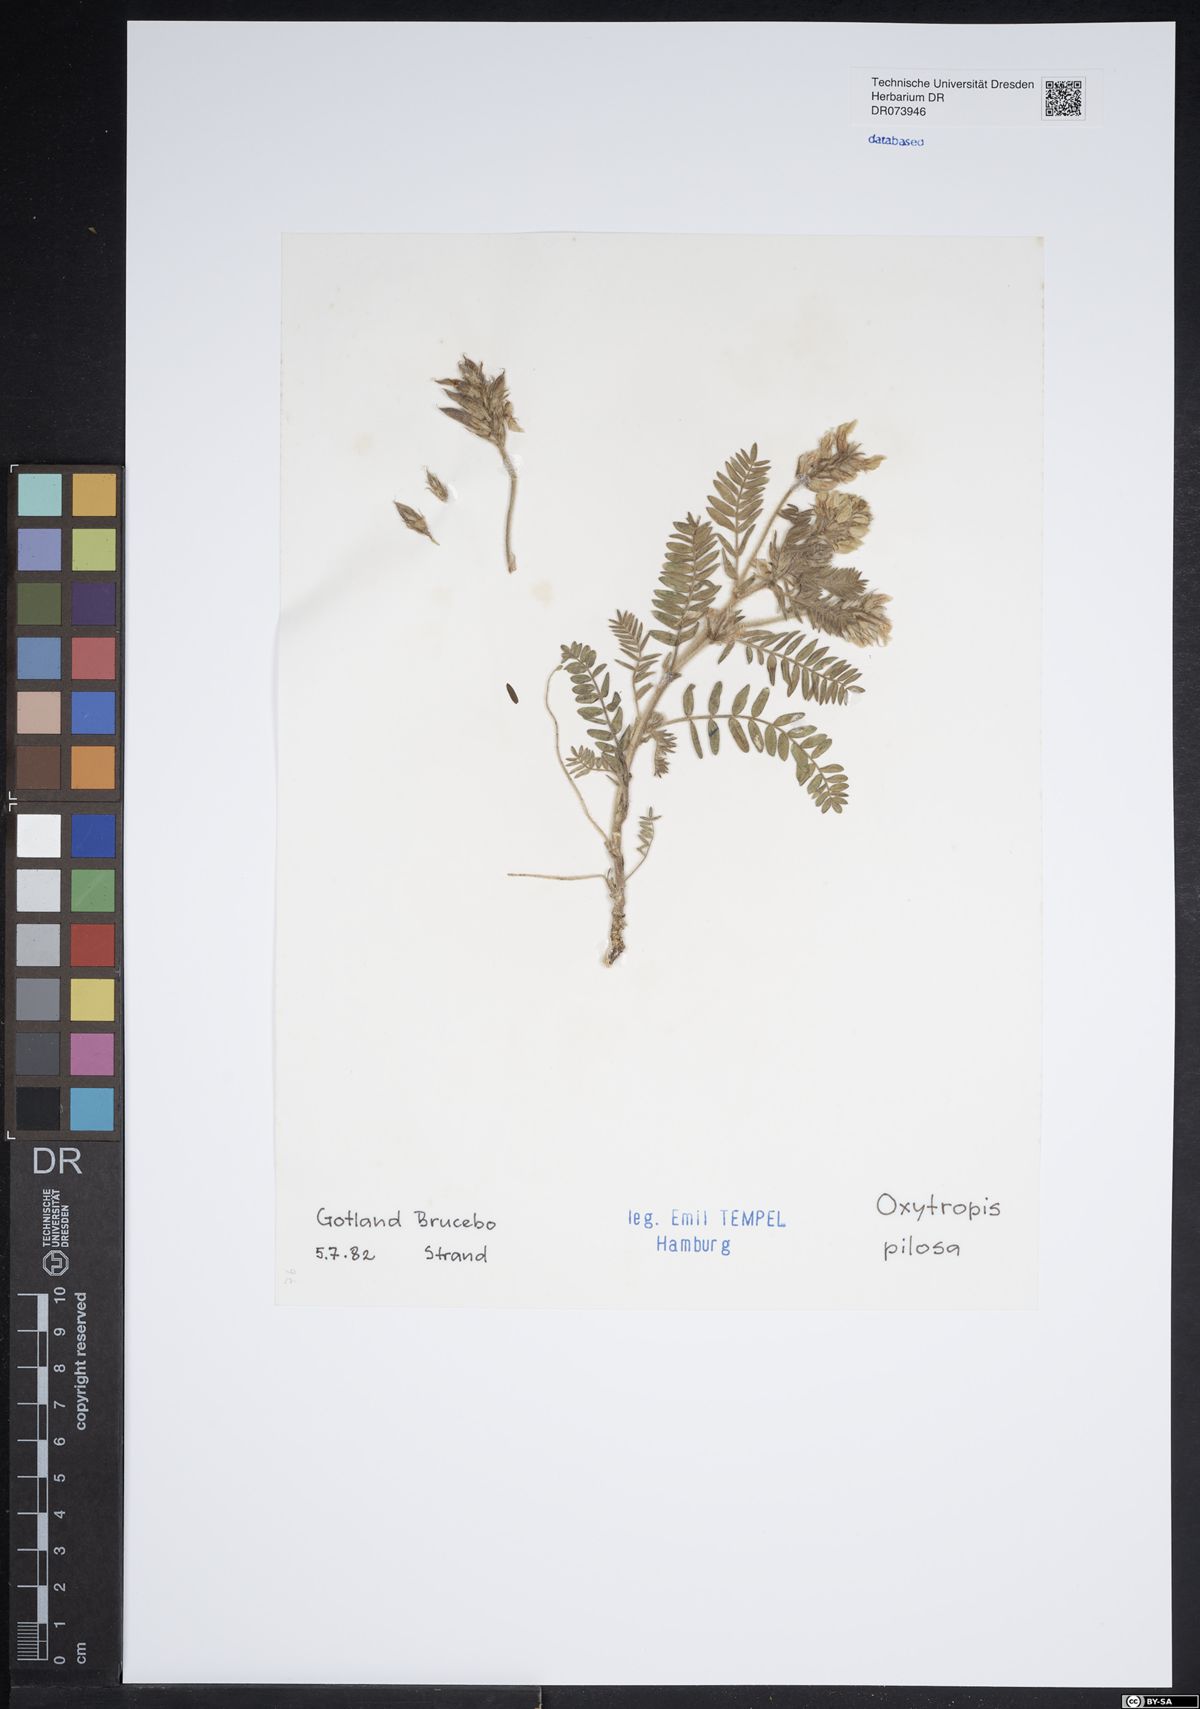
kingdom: Plantae
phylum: Tracheophyta
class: Magnoliopsida
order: Fabales
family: Fabaceae
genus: Oxytropis
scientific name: Oxytropis pilosa
